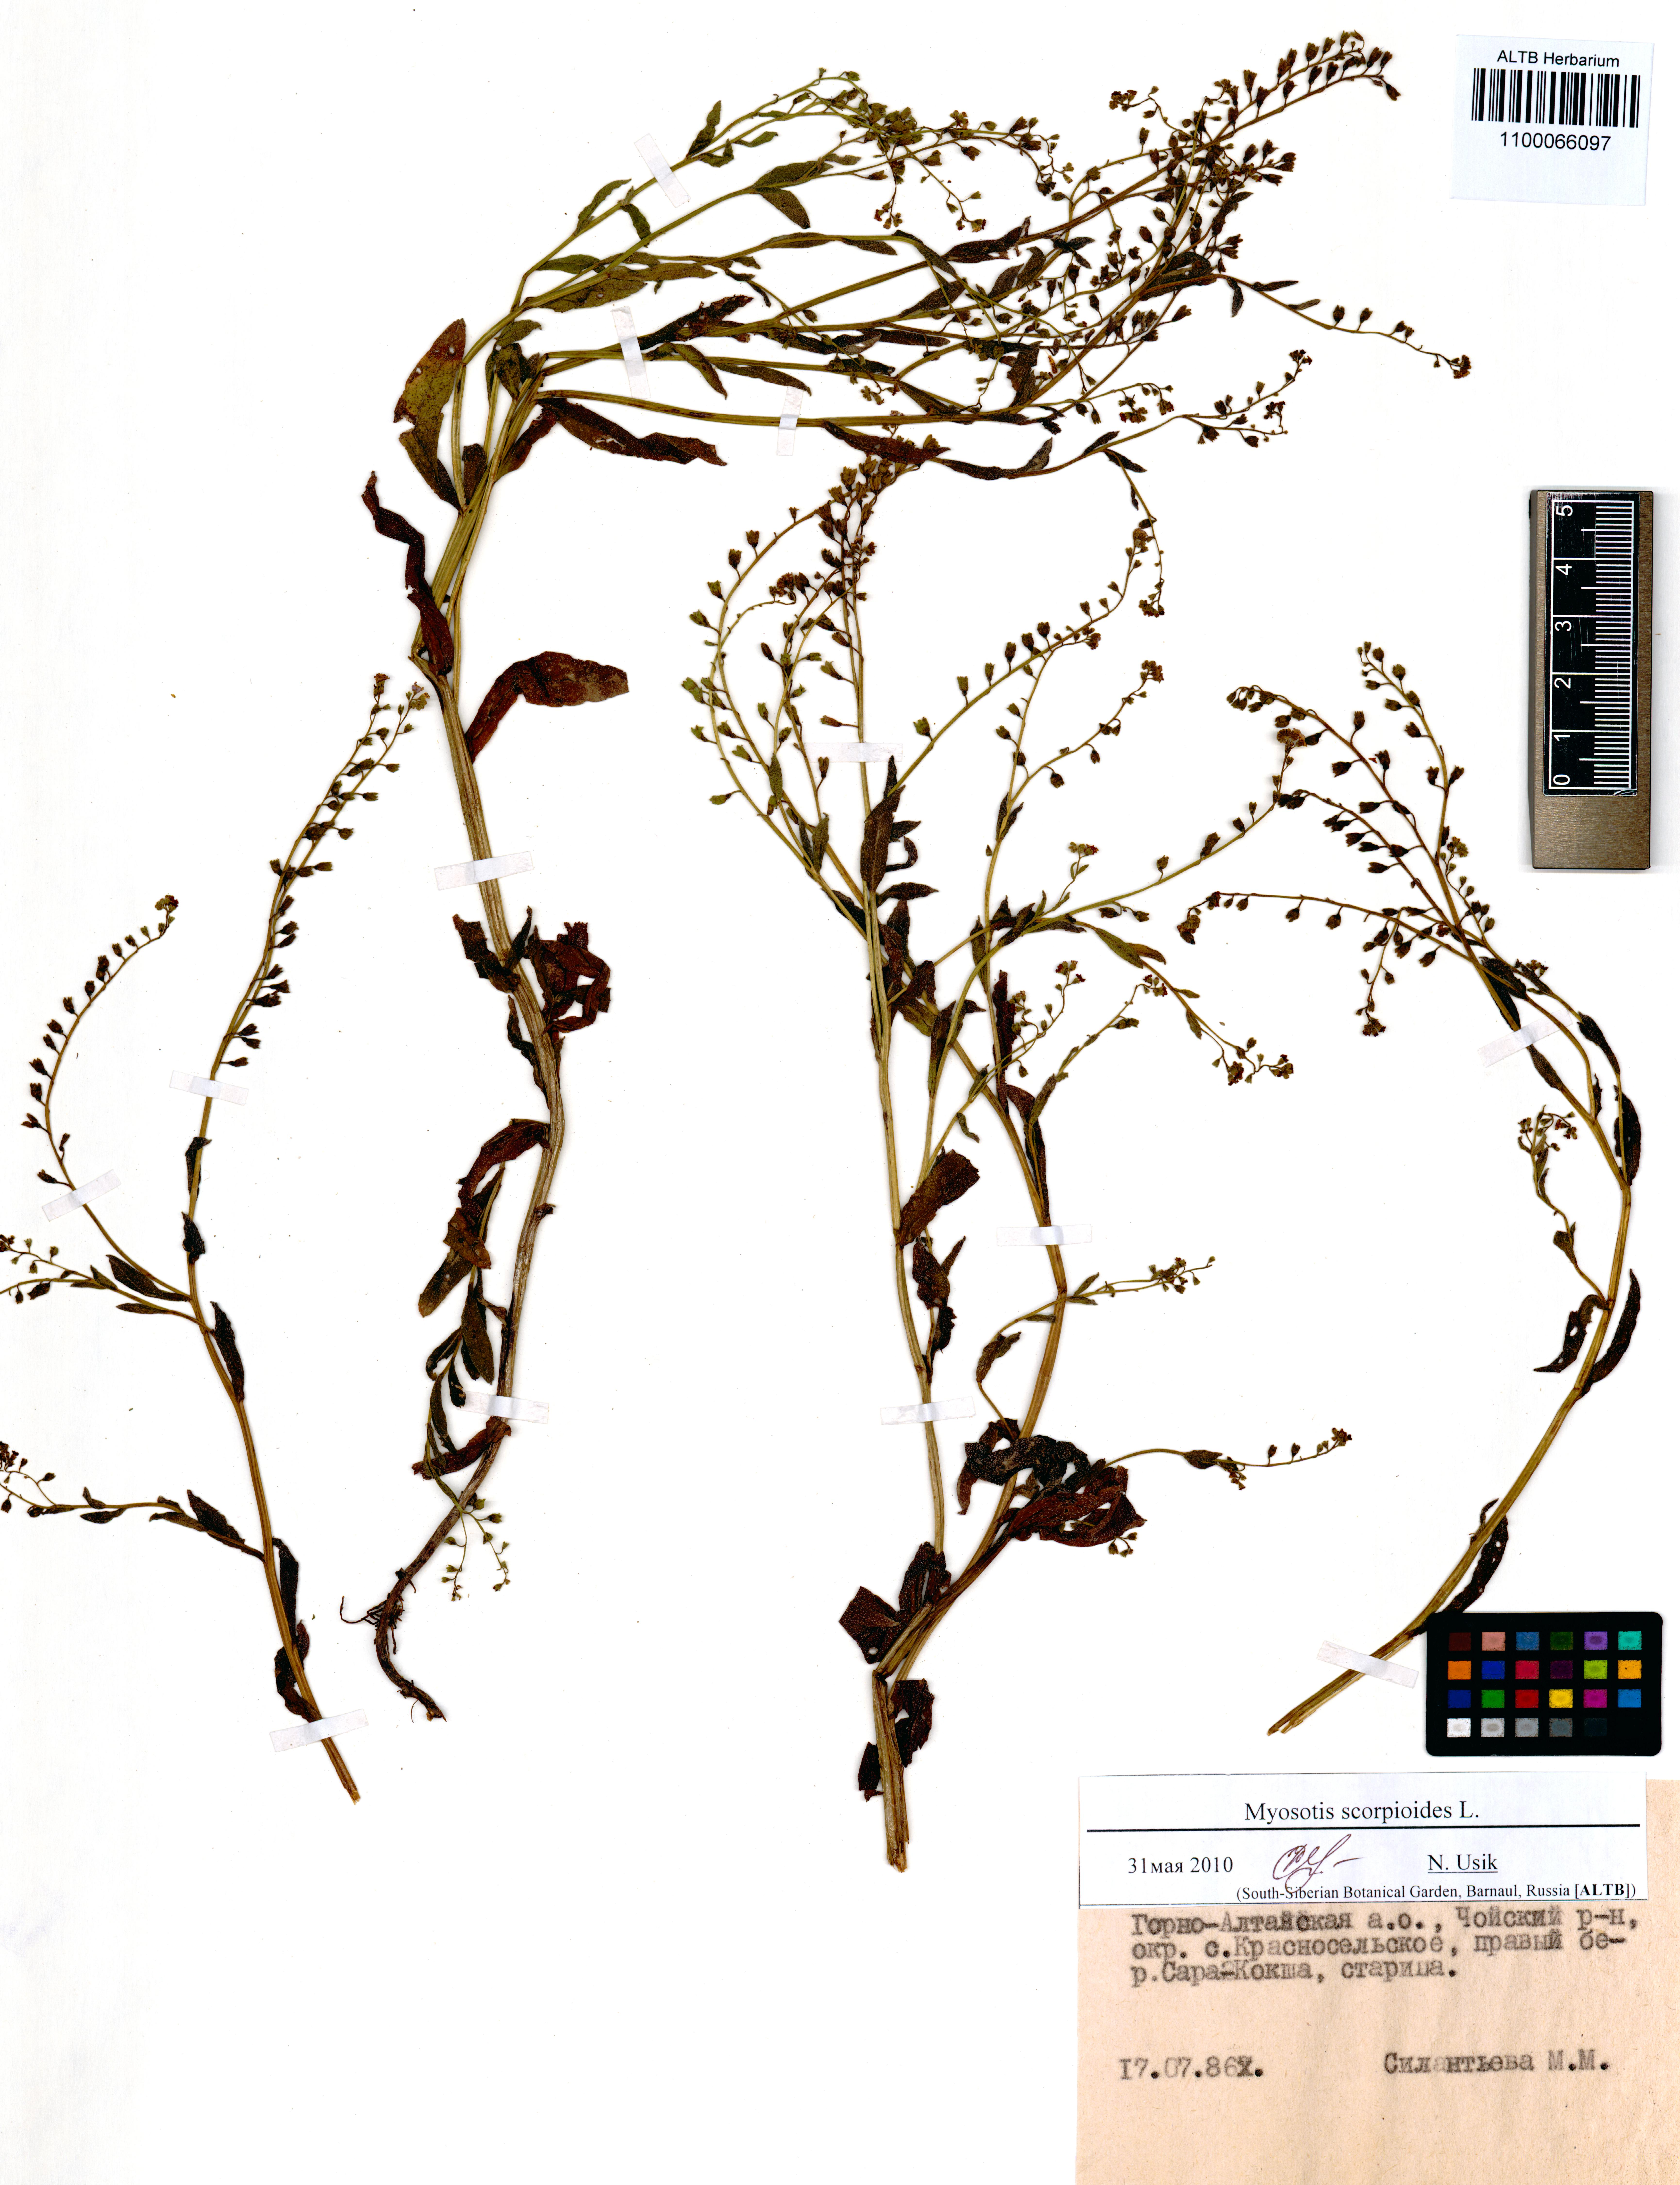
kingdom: Plantae
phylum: Tracheophyta
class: Magnoliopsida
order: Boraginales
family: Boraginaceae
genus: Myosotis
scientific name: Myosotis scorpioides
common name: Water forget-me-not
